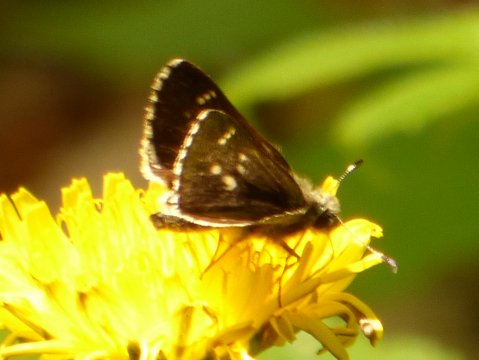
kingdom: Animalia
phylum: Arthropoda
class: Insecta
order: Lepidoptera
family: Hesperiidae
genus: Mastor
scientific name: Mastor hegon
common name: Pepper and Salt Skipper
